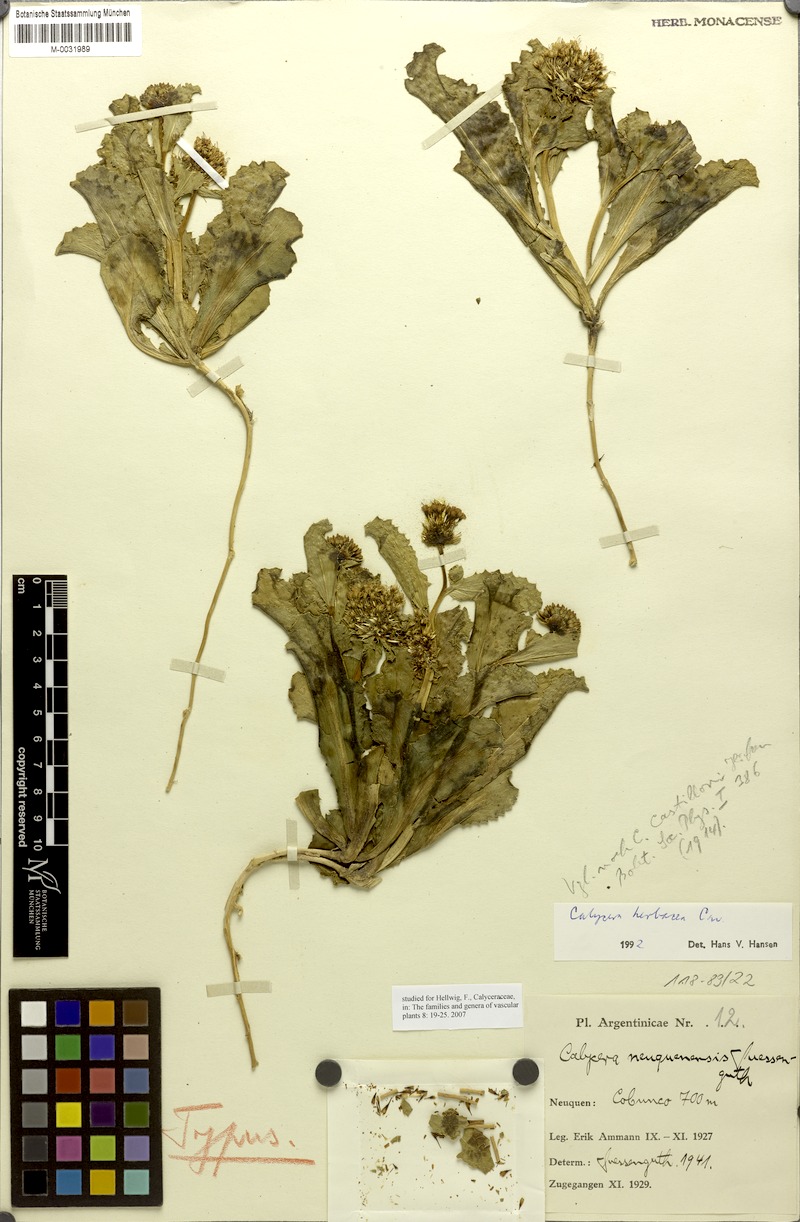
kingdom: Plantae
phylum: Tracheophyta
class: Magnoliopsida
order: Asterales
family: Calyceraceae
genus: Calycera
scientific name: Calycera herbacea
